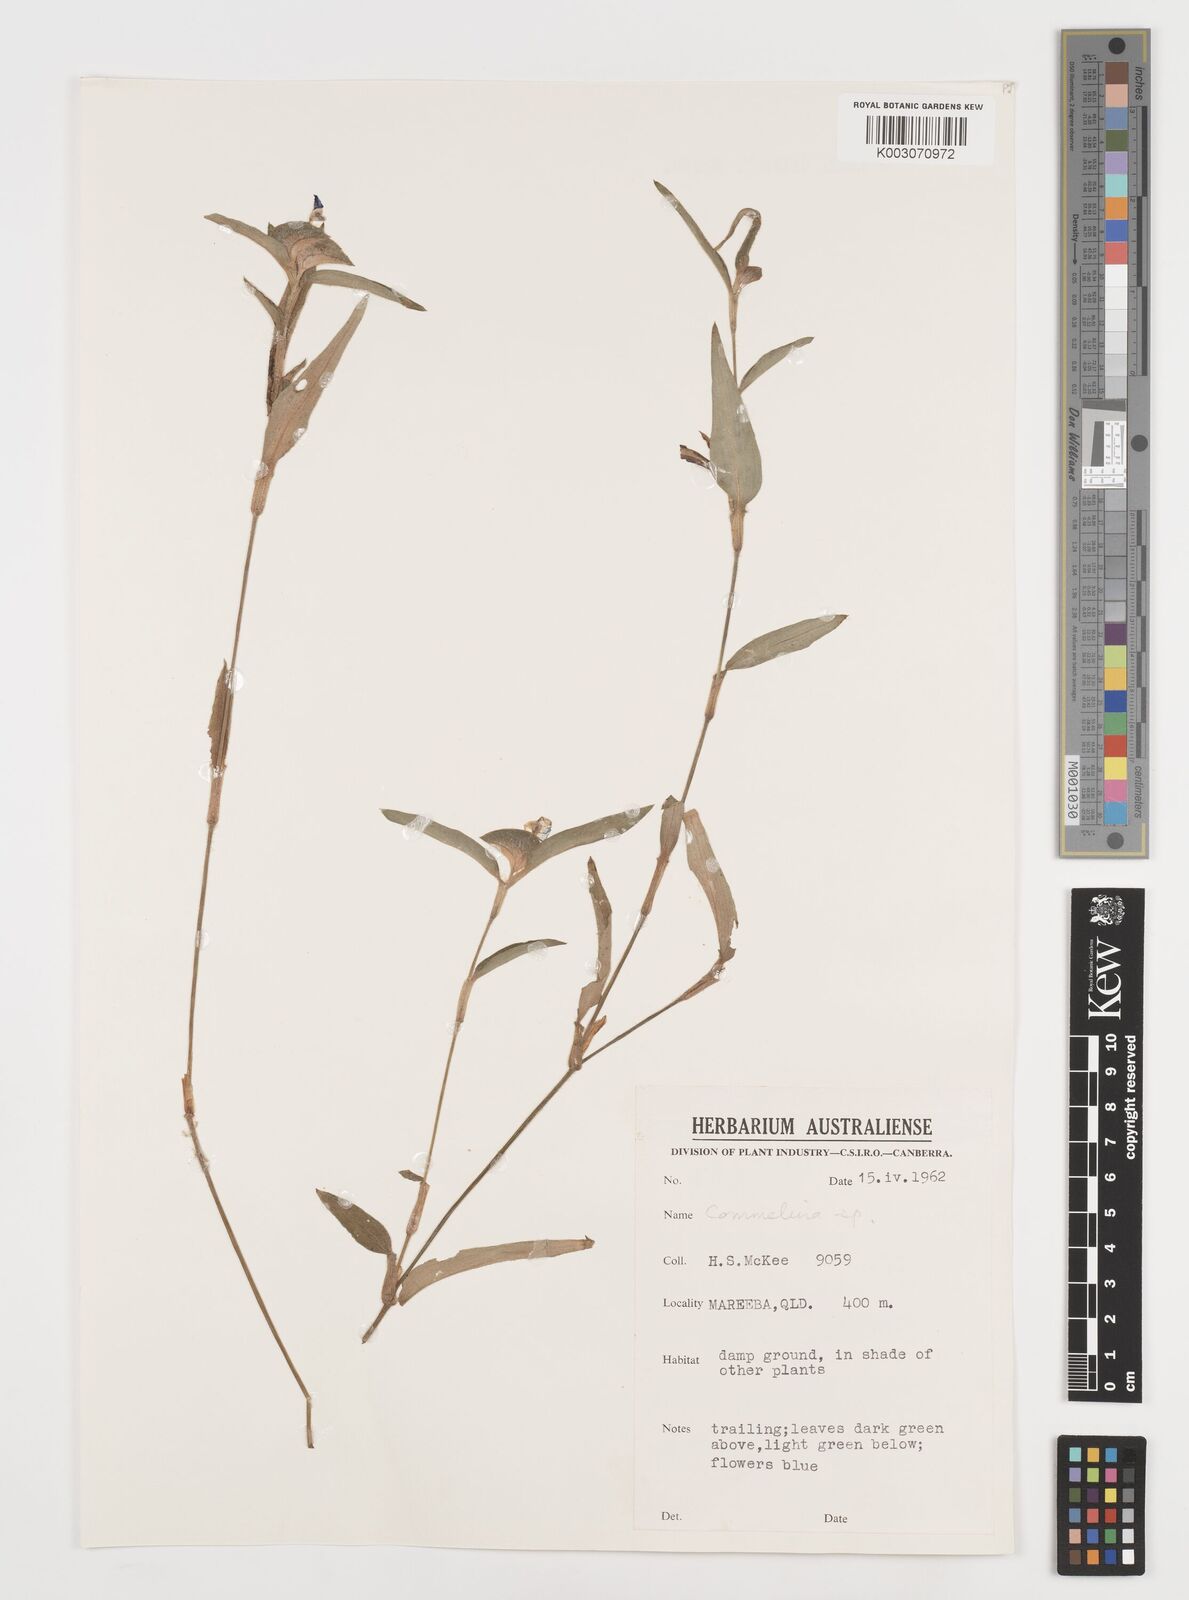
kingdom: Plantae
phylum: Tracheophyta
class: Liliopsida
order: Commelinales
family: Commelinaceae
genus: Commelina
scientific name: Commelina
